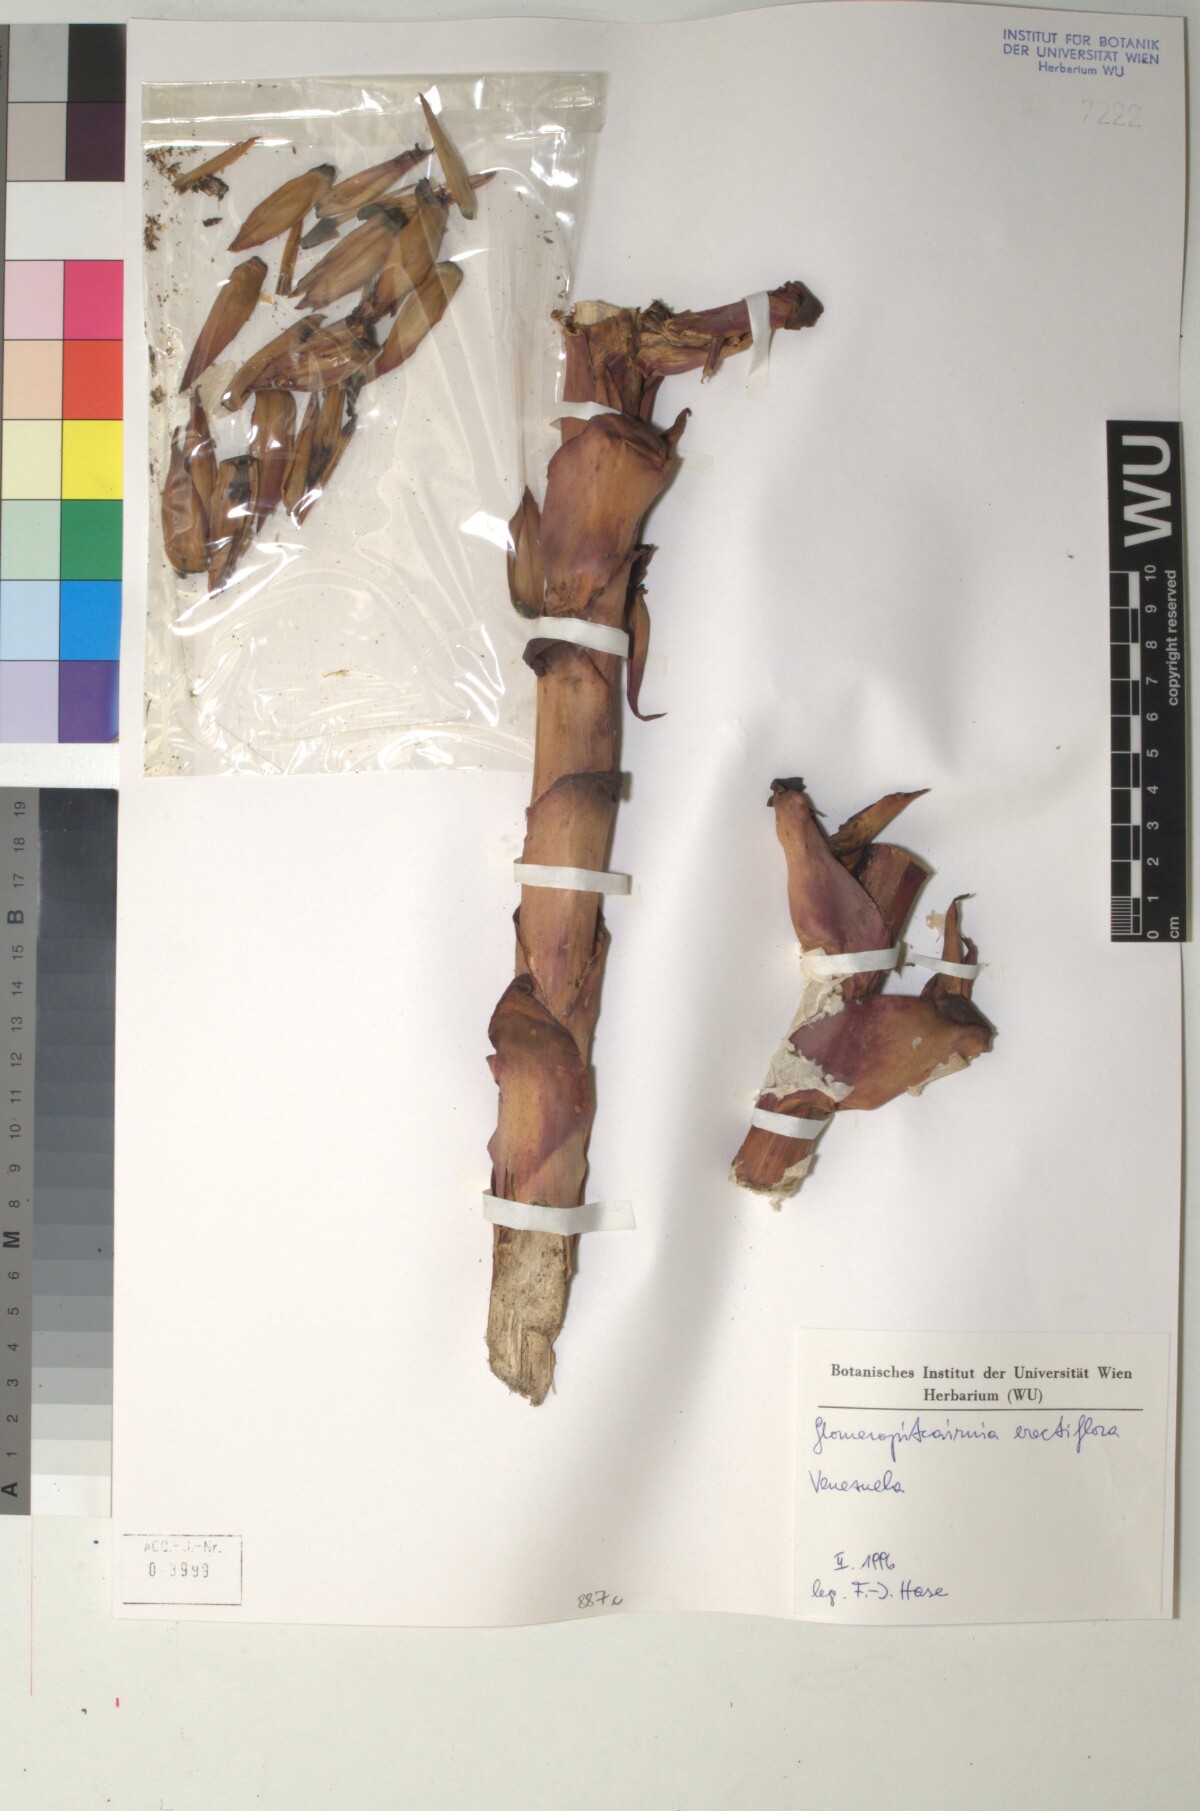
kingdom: Plantae
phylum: Tracheophyta
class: Liliopsida
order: Poales
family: Bromeliaceae
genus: Glomeropitcairnia
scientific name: Glomeropitcairnia erectiflora
